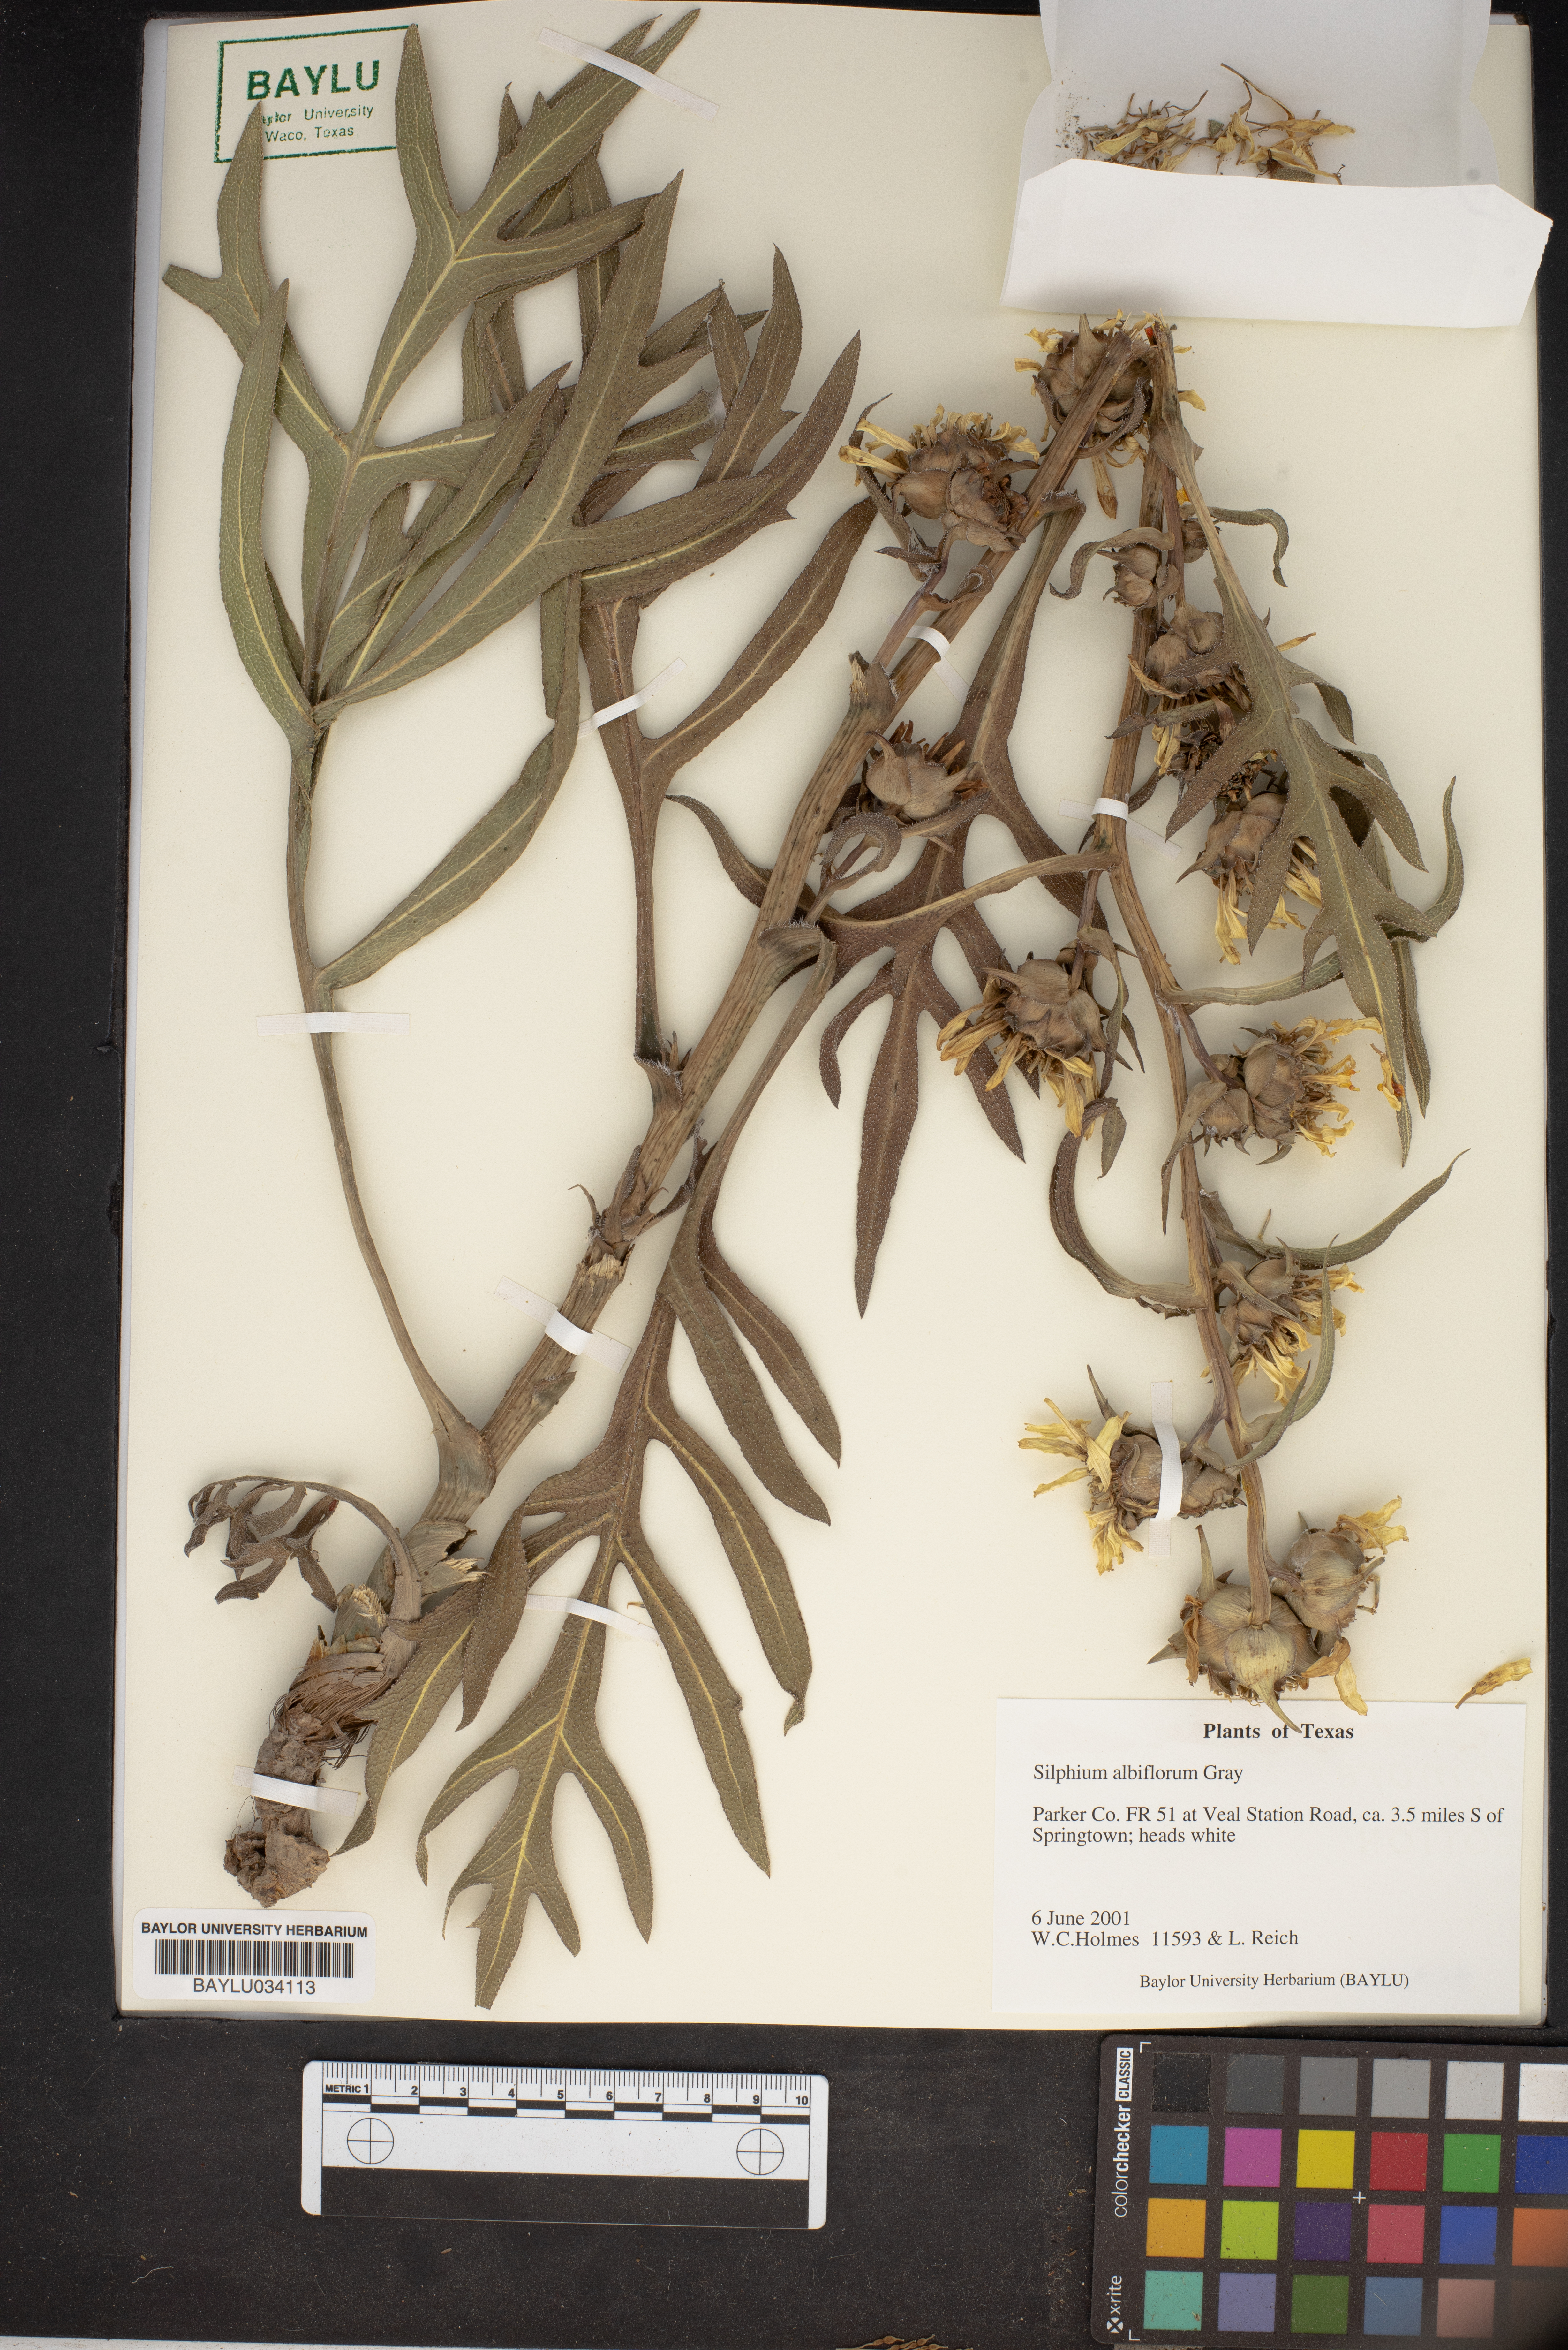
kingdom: Plantae
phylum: Tracheophyta
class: Magnoliopsida
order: Asterales
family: Asteraceae
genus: Silphium
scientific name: Silphium albiflorum
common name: White rosinweed
